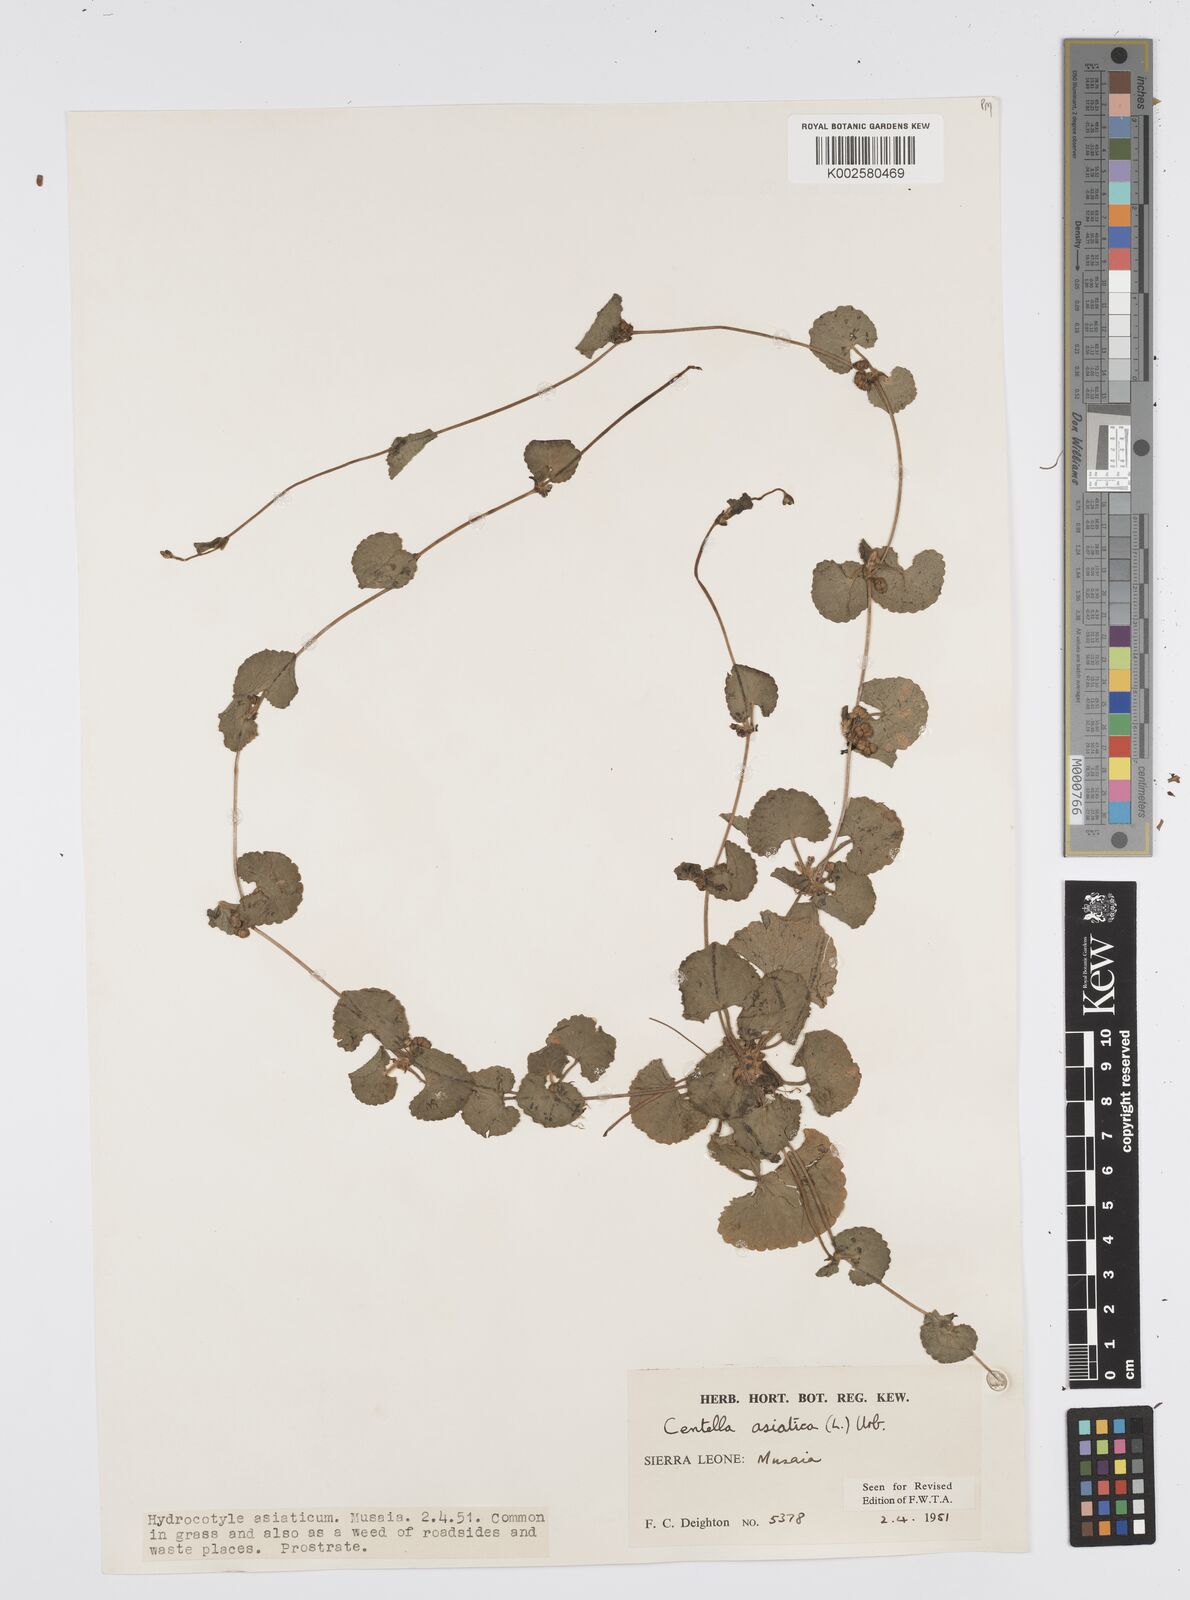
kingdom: Plantae
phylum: Tracheophyta
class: Magnoliopsida
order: Apiales
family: Apiaceae
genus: Centella
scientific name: Centella asiatica
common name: Spadeleaf
